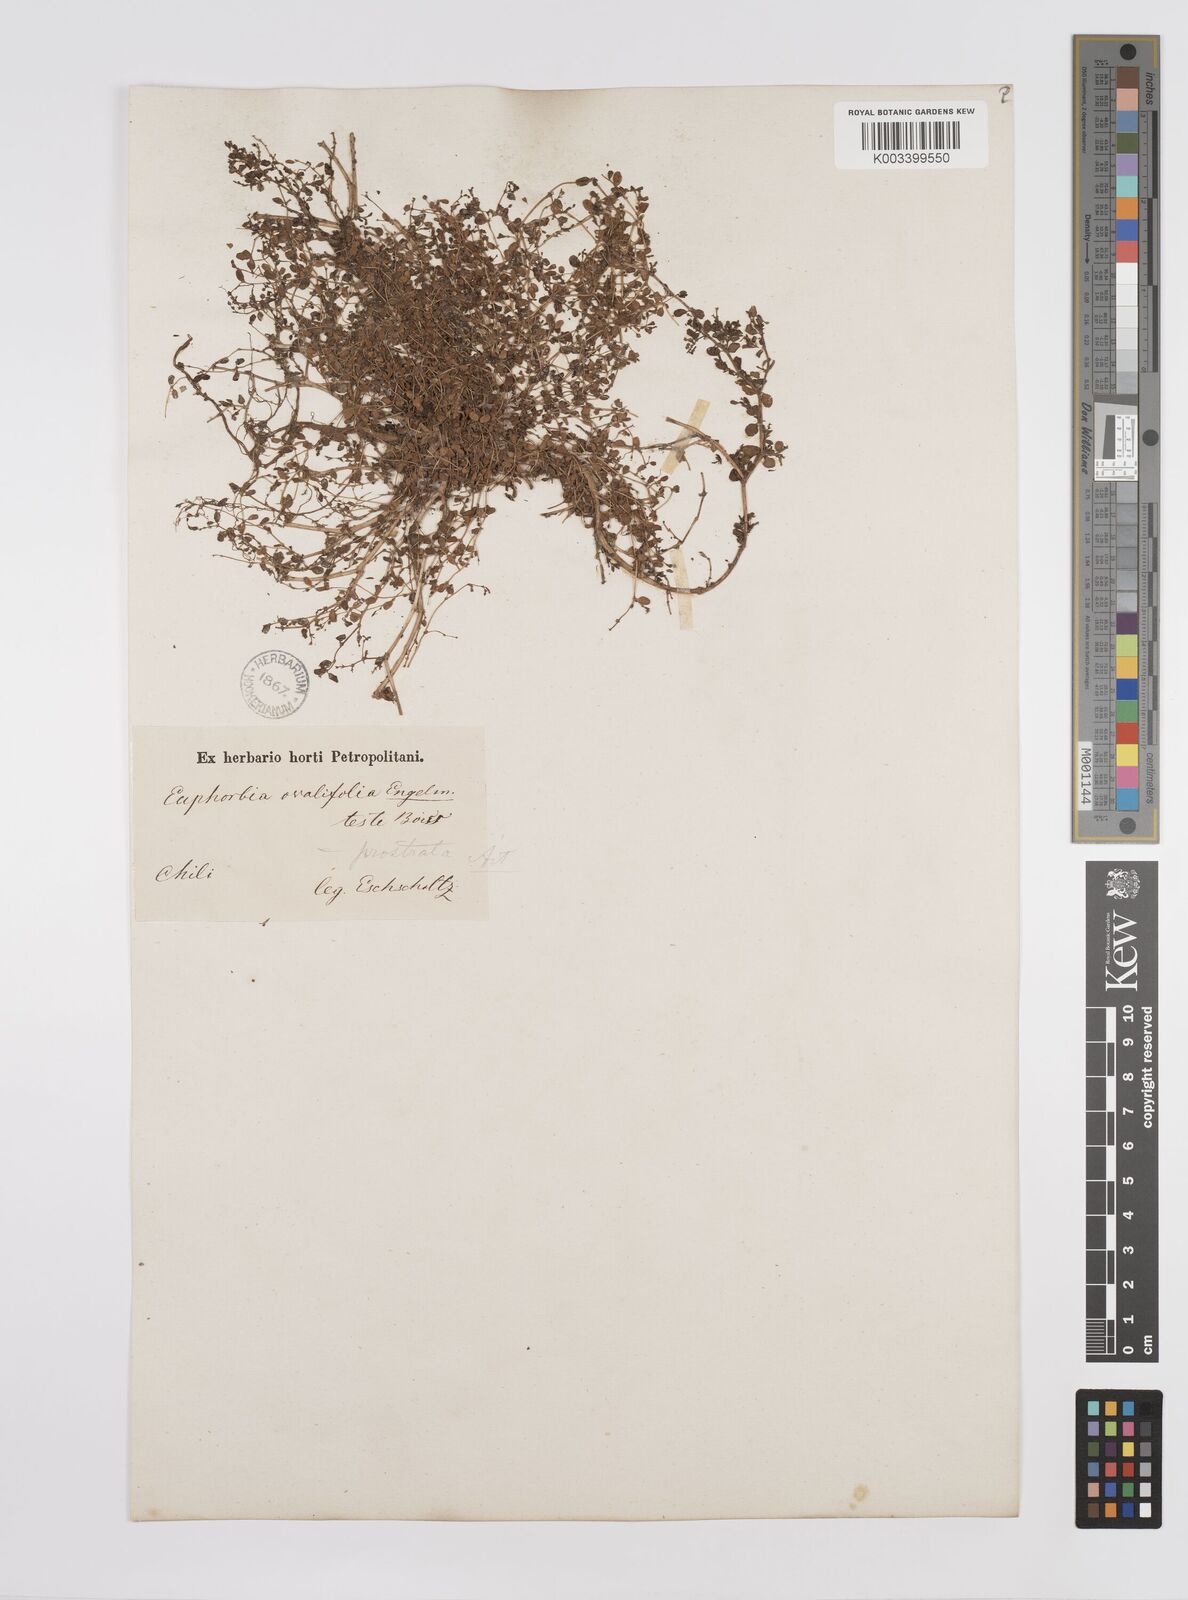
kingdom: Plantae
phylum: Tracheophyta
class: Magnoliopsida
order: Malpighiales
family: Euphorbiaceae
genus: Euphorbia
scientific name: Euphorbia
